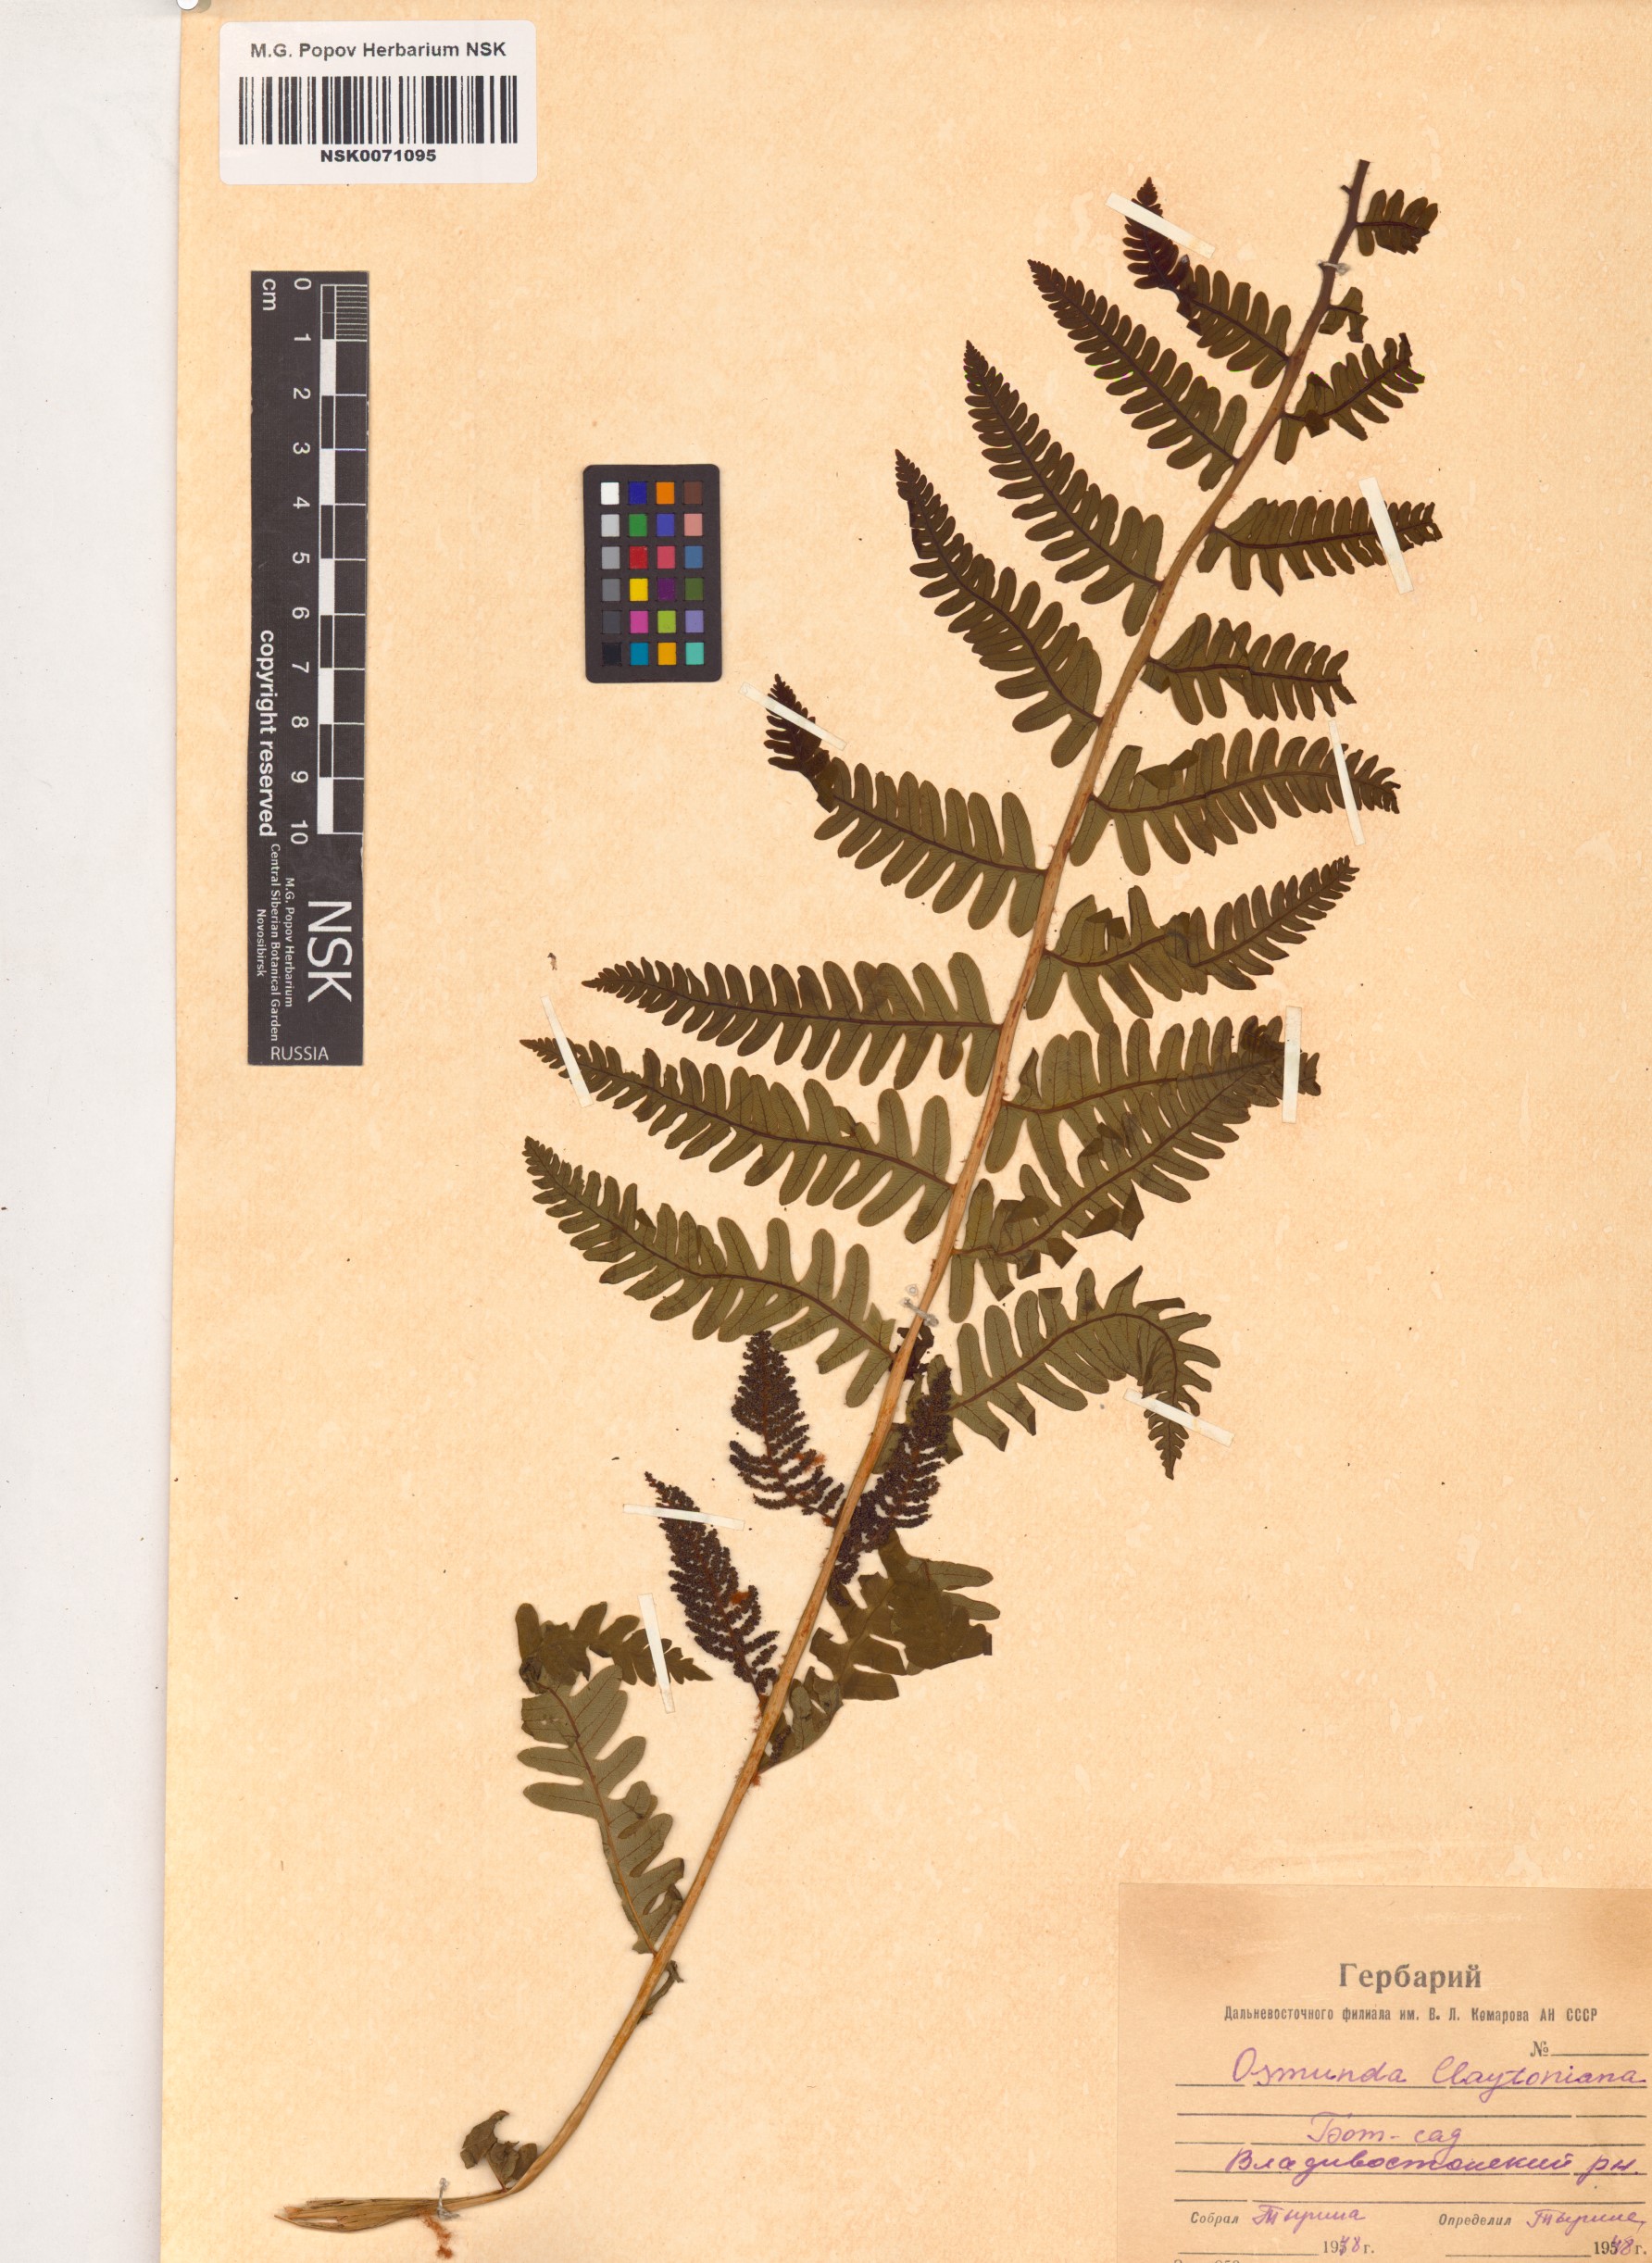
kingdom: Plantae
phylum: Tracheophyta
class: Polypodiopsida
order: Osmundales
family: Osmundaceae
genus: Claytosmunda
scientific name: Claytosmunda claytoniana
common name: Clayton's fern
